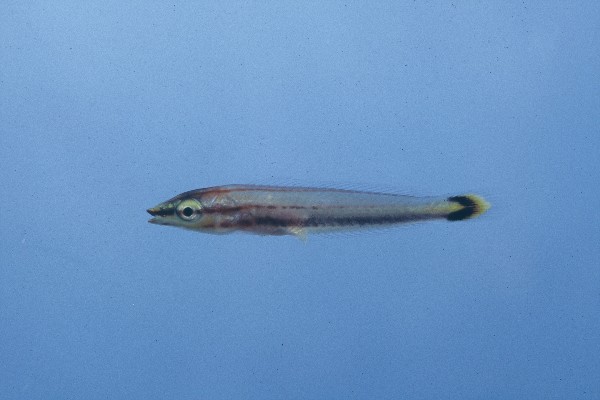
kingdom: Animalia
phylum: Chordata
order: Perciformes
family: Labridae
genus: Hologymnosus
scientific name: Hologymnosus annulatus
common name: Ring wrasse
